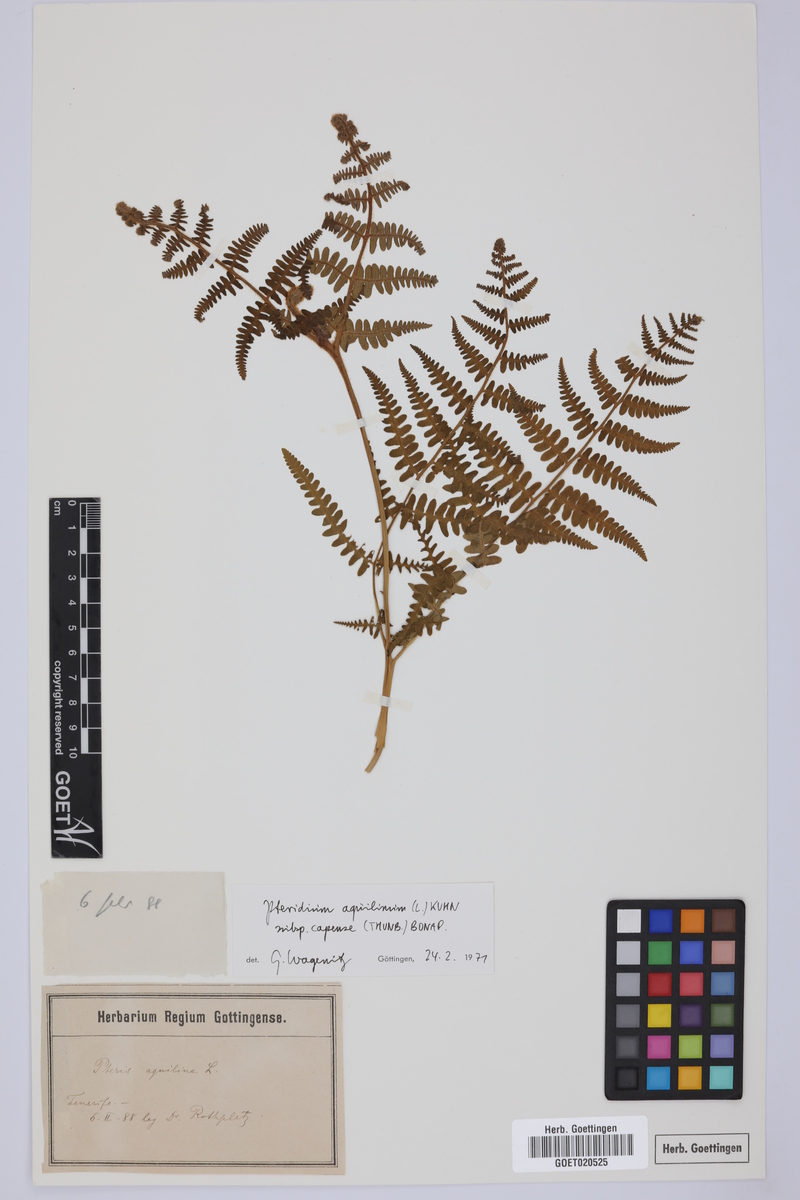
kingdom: Plantae
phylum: Tracheophyta
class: Polypodiopsida
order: Polypodiales
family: Dennstaedtiaceae
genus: Pteridium
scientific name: Pteridium aquilinum
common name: Bracken
